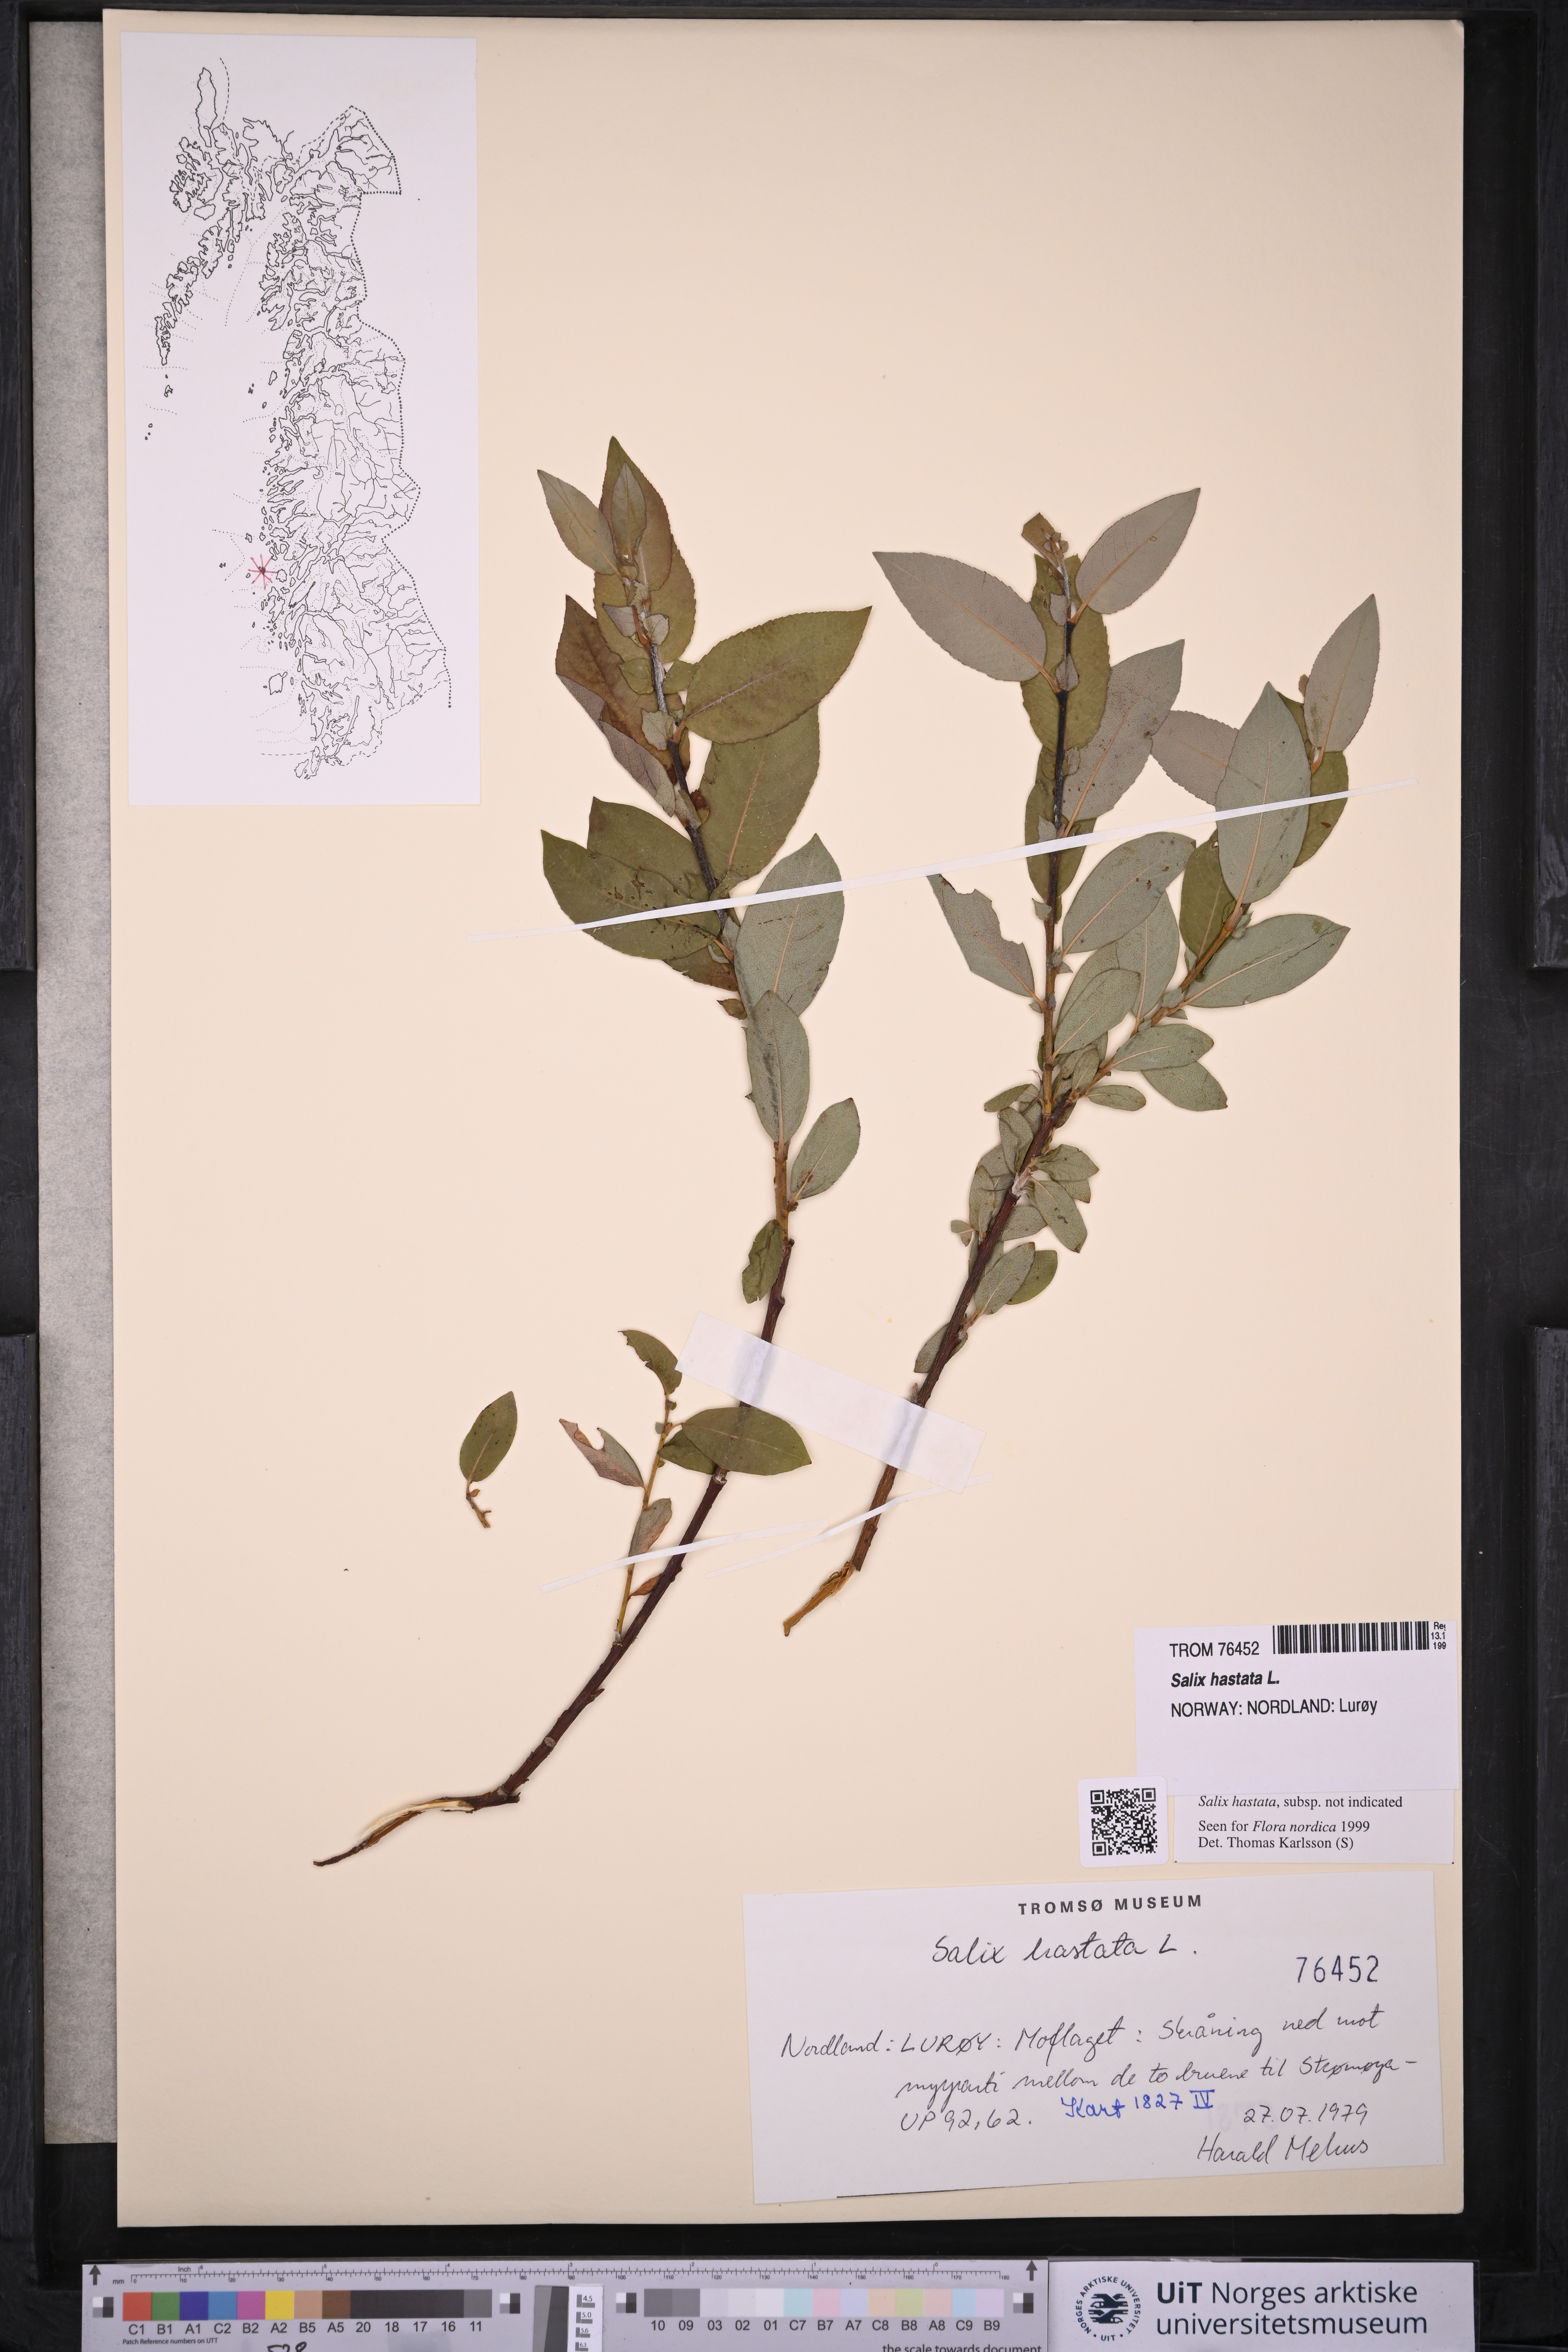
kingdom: Plantae
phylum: Tracheophyta
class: Magnoliopsida
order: Malpighiales
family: Salicaceae
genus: Salix
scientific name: Salix hastata
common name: Halberd willow
